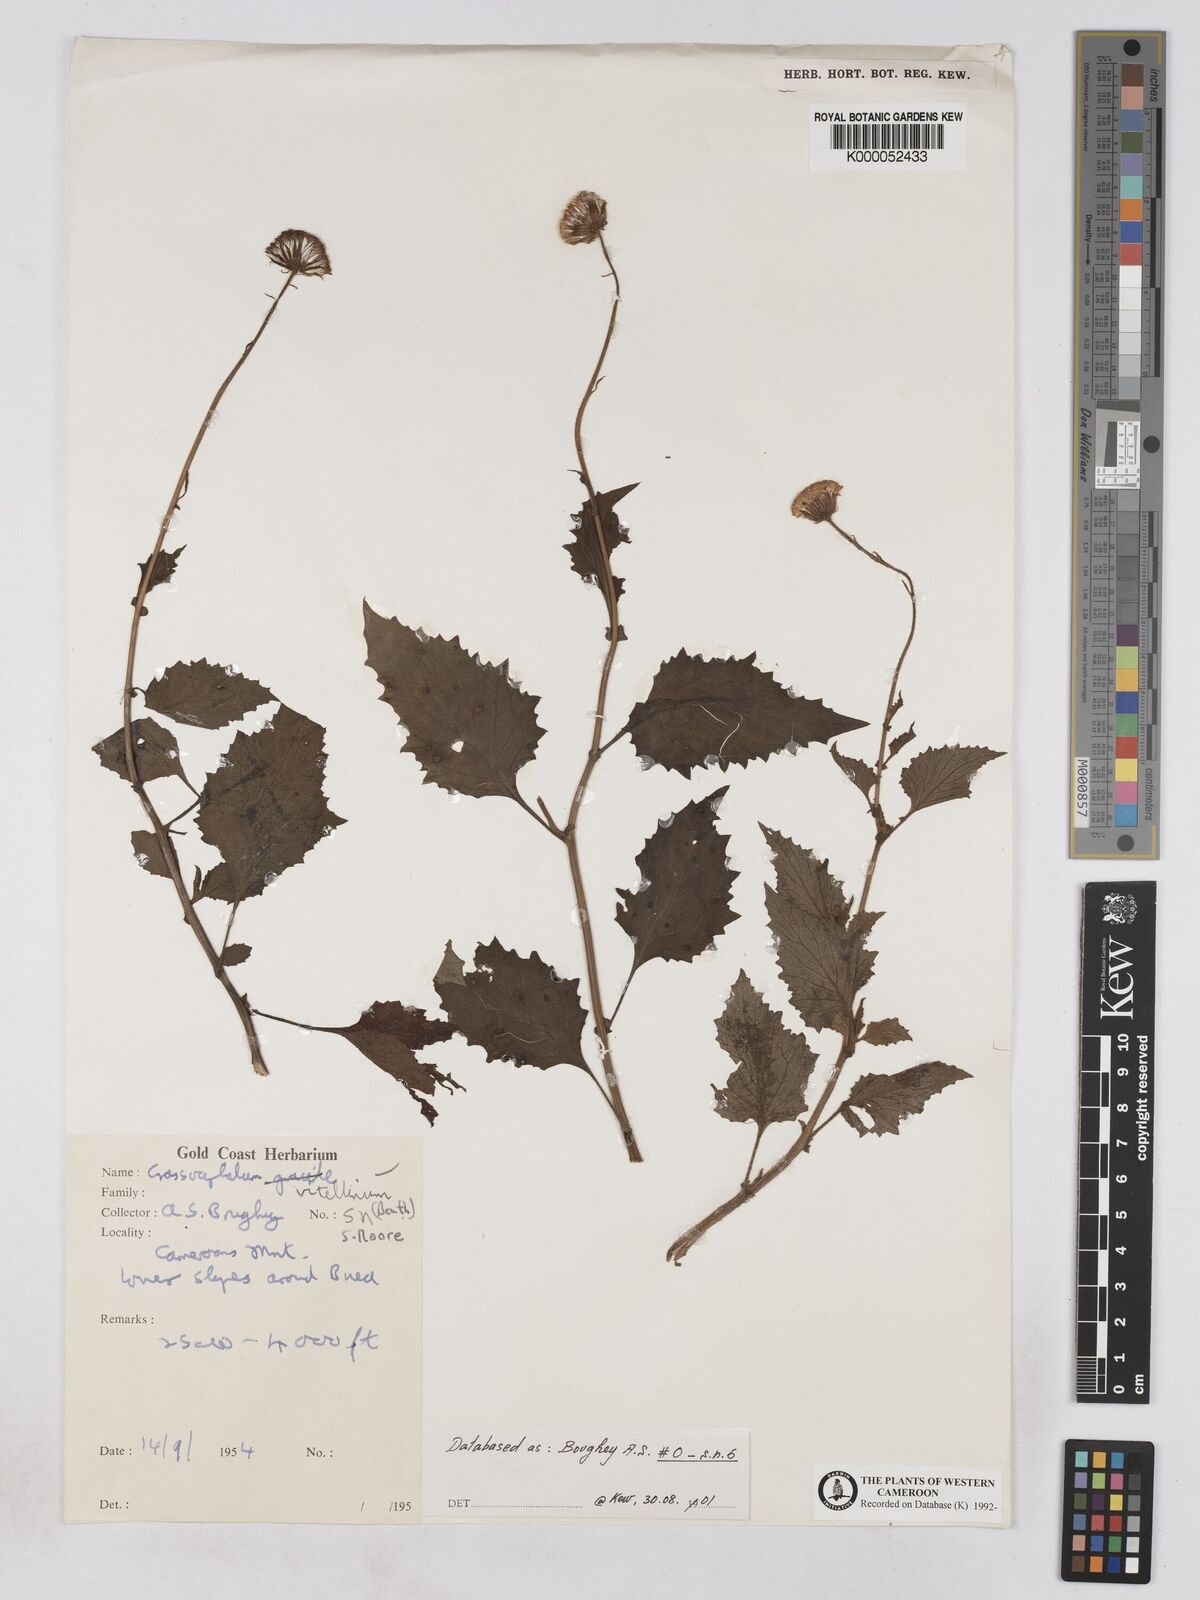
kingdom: Plantae
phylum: Tracheophyta
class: Magnoliopsida
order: Asterales
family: Asteraceae
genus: Crassocephalum
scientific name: Crassocephalum vitellinum
